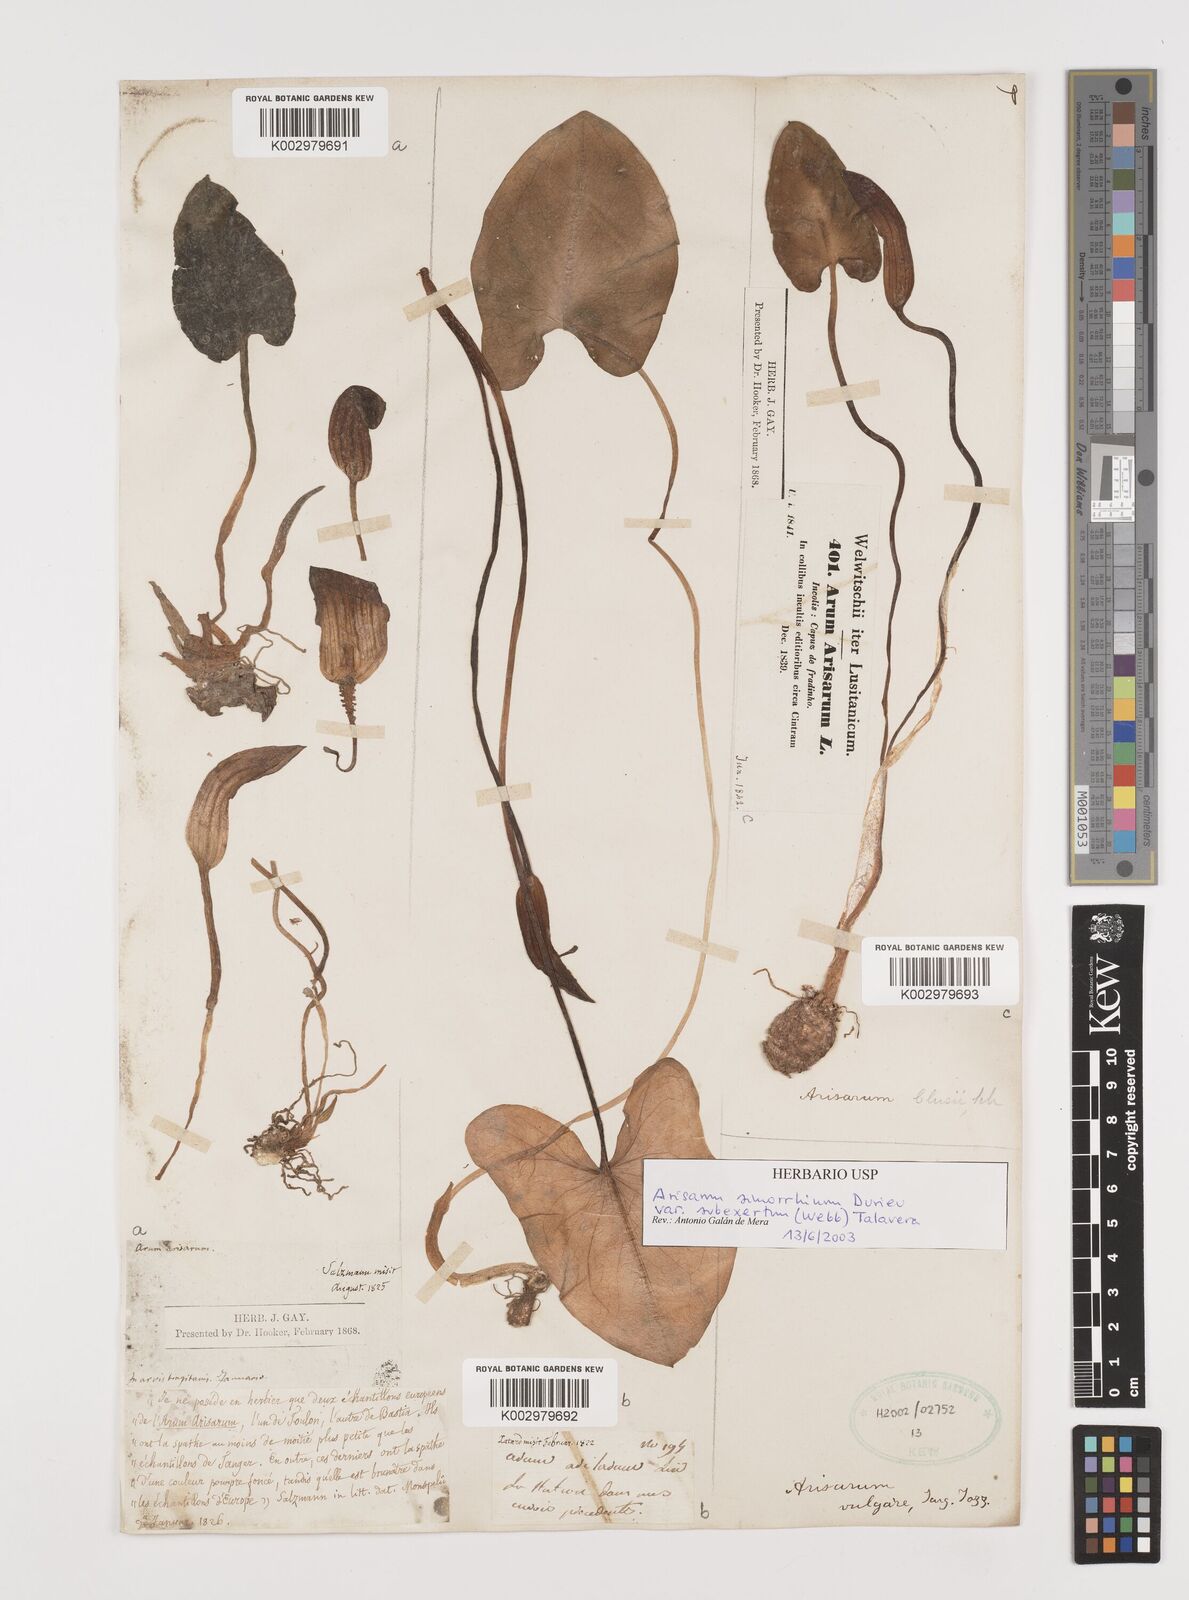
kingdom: Plantae
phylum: Tracheophyta
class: Liliopsida
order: Alismatales
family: Araceae
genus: Arisarum
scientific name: Arisarum simorrhinum
